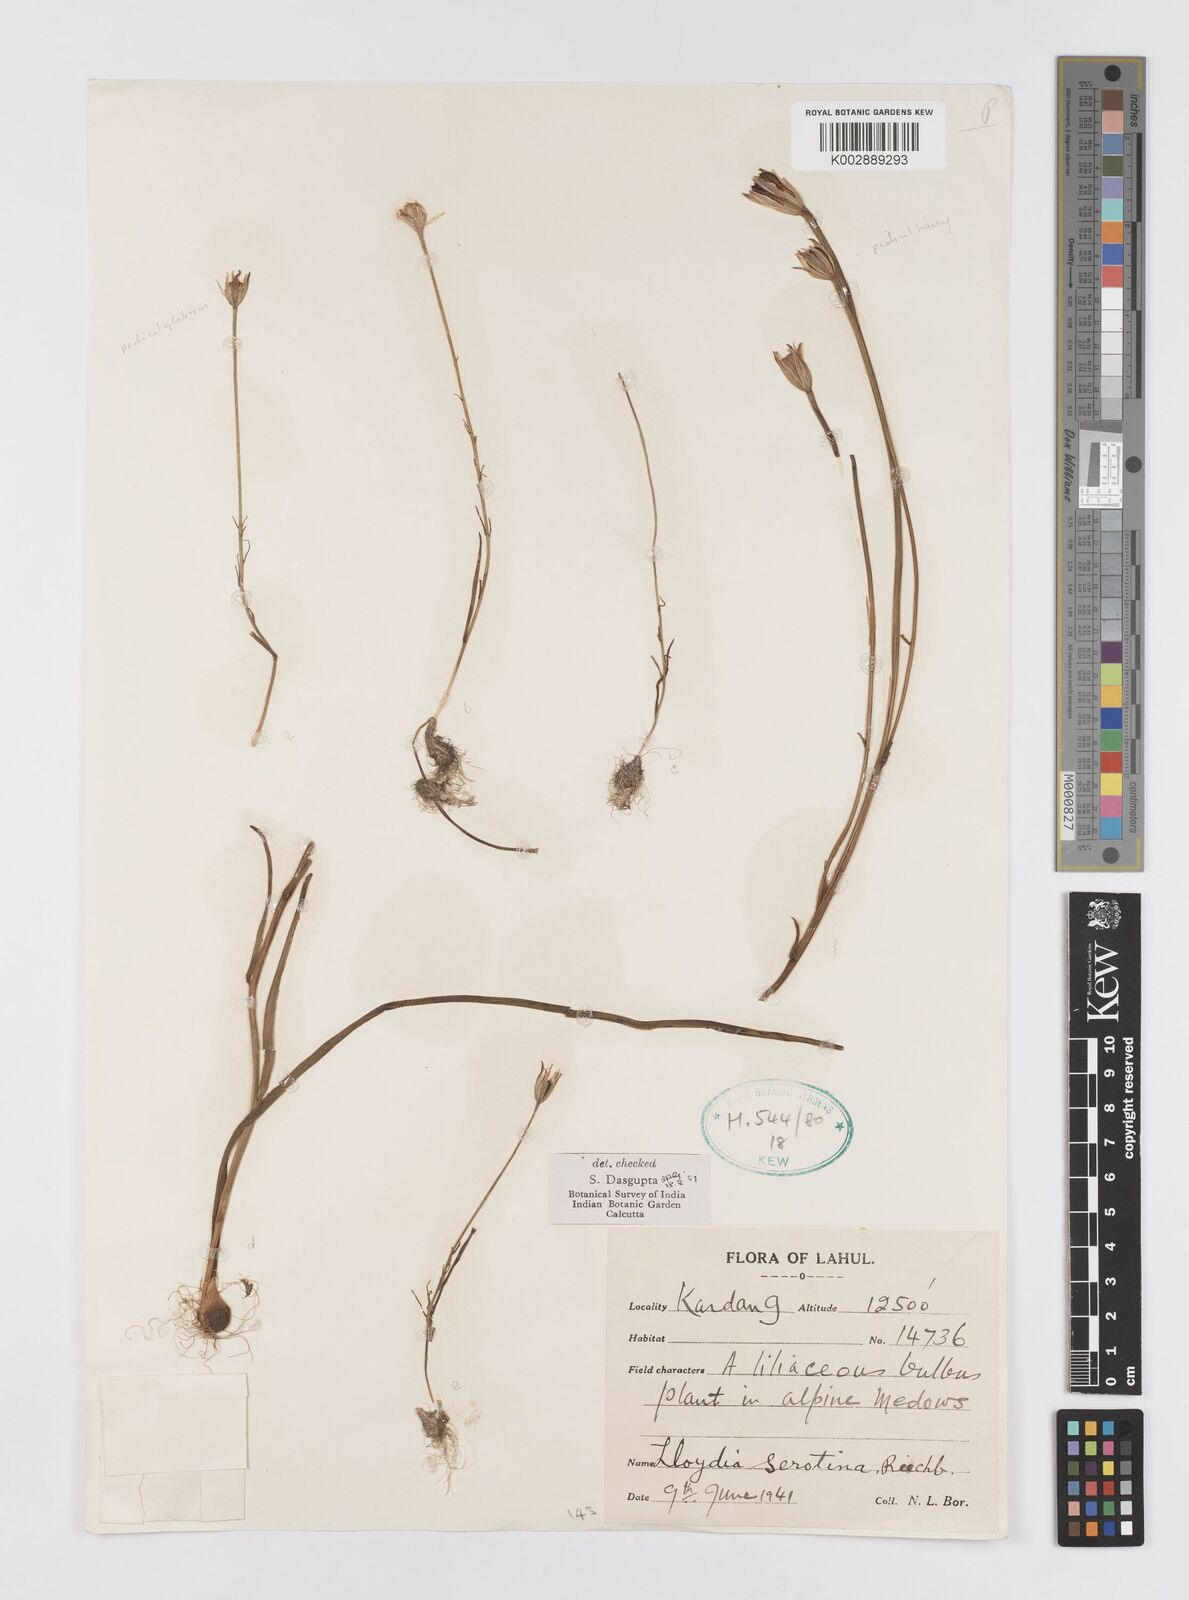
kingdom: Plantae
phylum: Tracheophyta
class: Liliopsida
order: Liliales
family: Liliaceae
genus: Gagea
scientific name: Gagea
